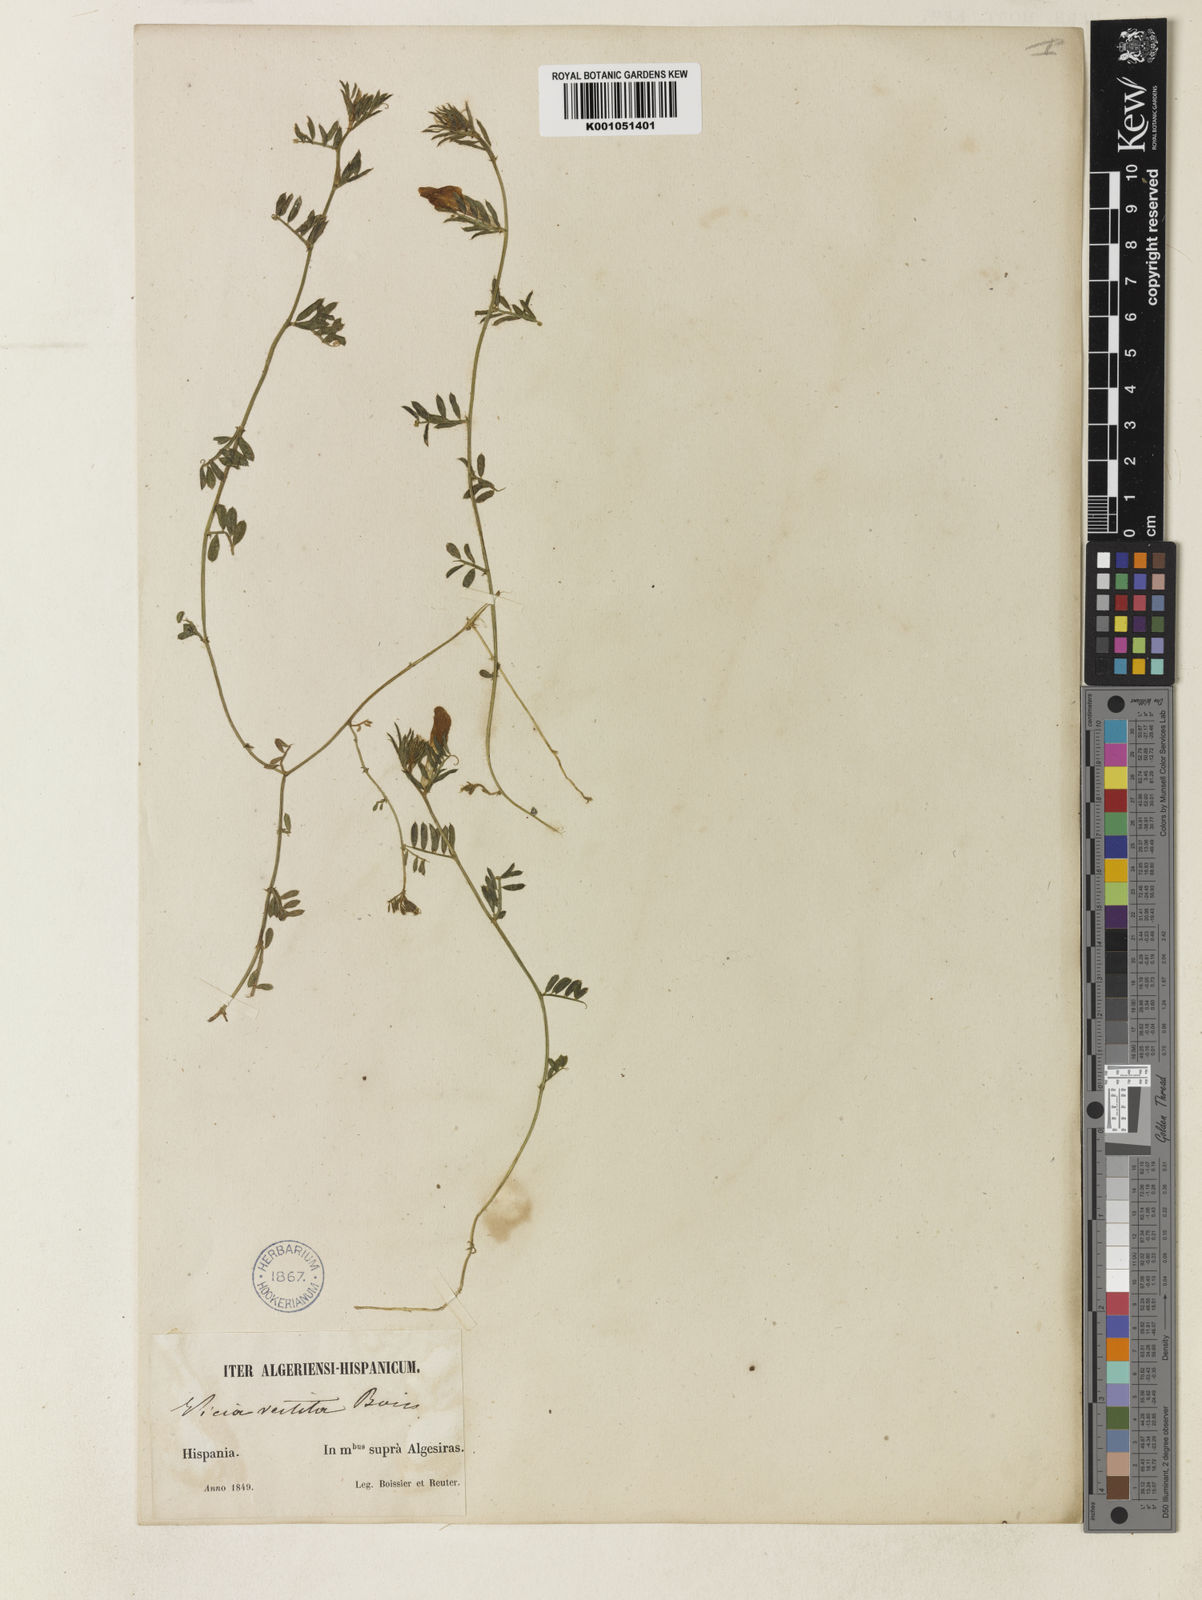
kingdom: Plantae
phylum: Tracheophyta
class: Magnoliopsida
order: Fabales
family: Fabaceae
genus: Vicia
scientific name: Vicia lutea
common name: Smooth yellow vetch
